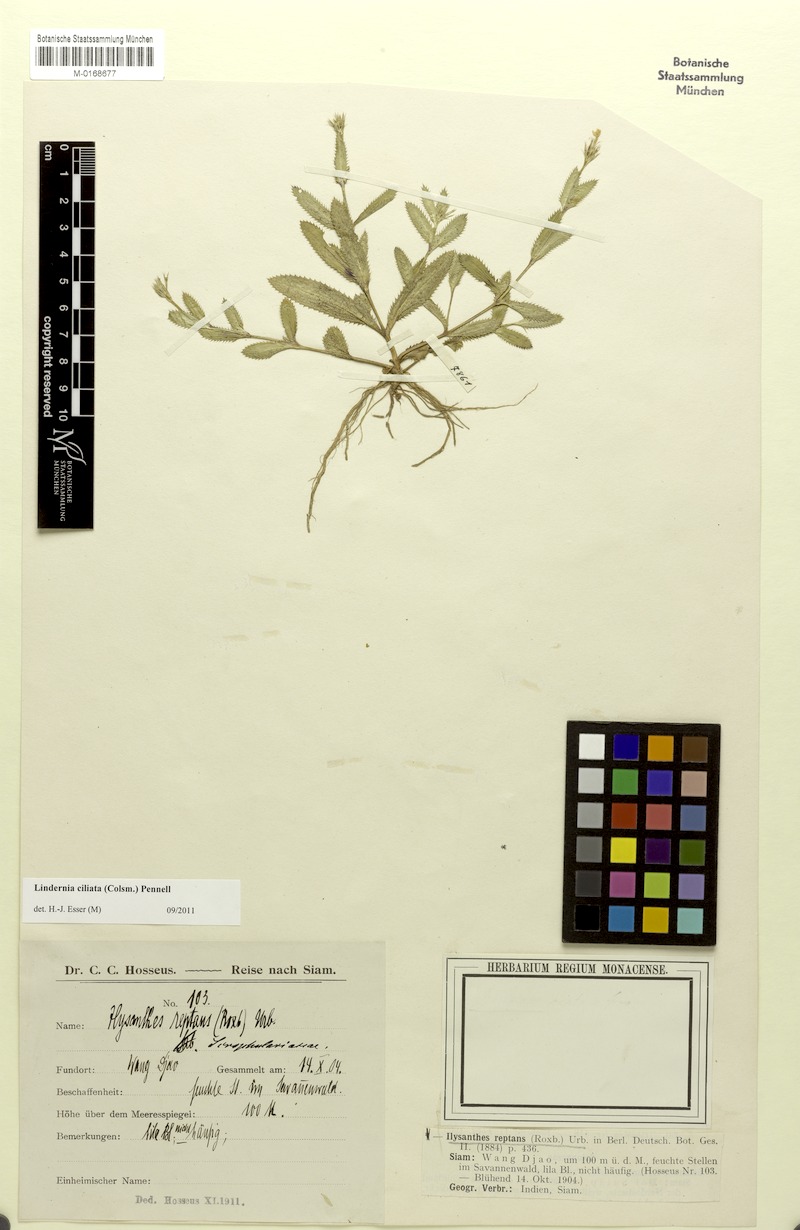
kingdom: Plantae
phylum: Tracheophyta
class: Magnoliopsida
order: Lamiales
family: Linderniaceae
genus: Bonnaya
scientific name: Bonnaya ciliata
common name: Hairy slitwort
